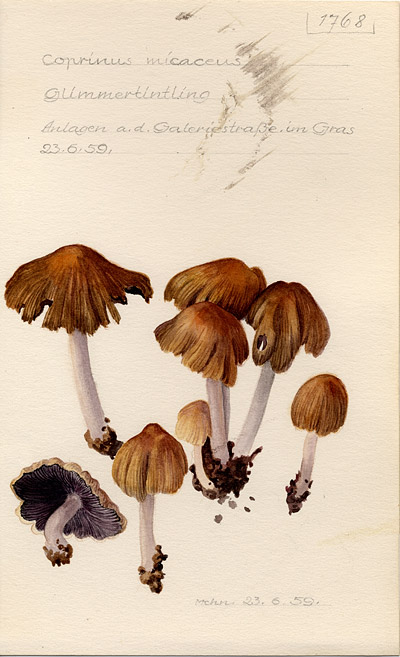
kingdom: Fungi
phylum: Basidiomycota
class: Agaricomycetes
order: Agaricales
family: Psathyrellaceae
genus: Coprinellus
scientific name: Coprinellus micaceus
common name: Glistening ink-cap
